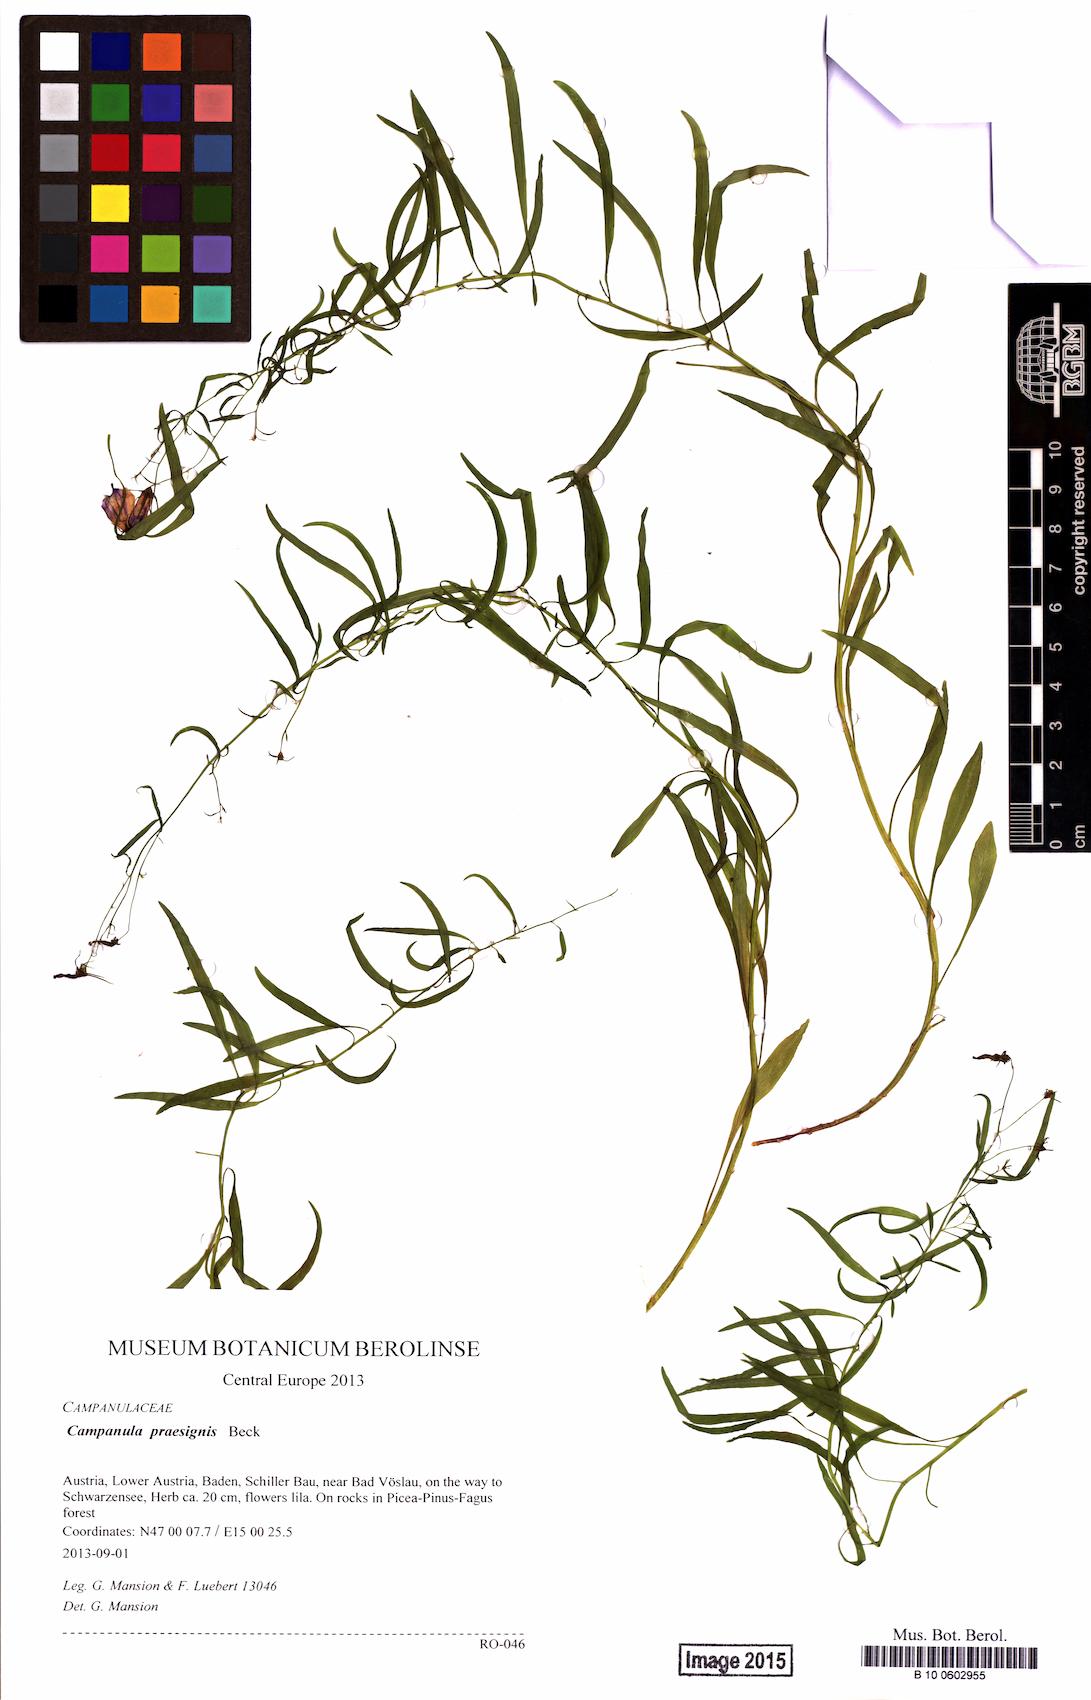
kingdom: Plantae
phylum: Tracheophyta
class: Magnoliopsida
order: Asterales
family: Campanulaceae
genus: Campanula
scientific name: Campanula praesignis
